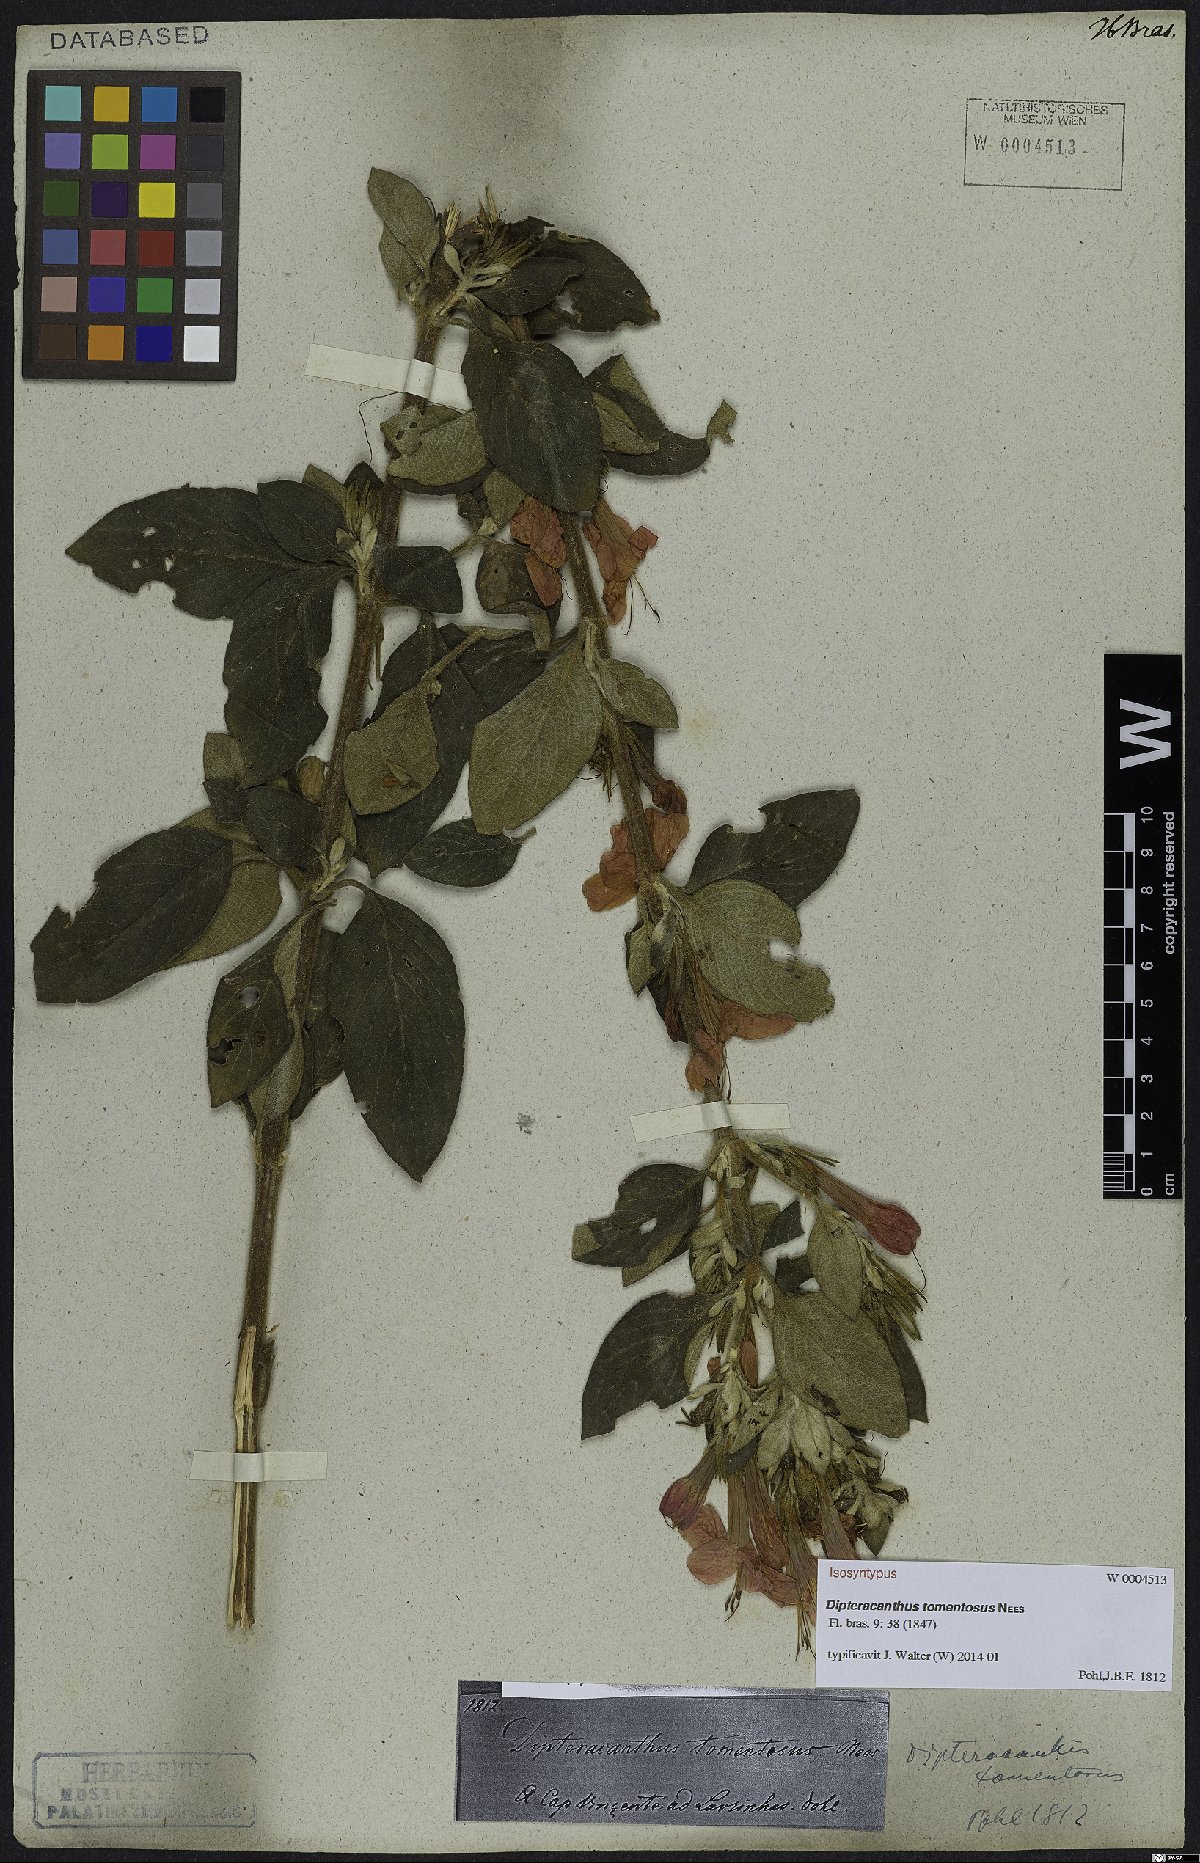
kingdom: Plantae
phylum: Tracheophyta
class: Magnoliopsida
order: Lamiales
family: Acanthaceae
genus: Ruellia
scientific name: Ruellia Dipteracanthus tomentosus
